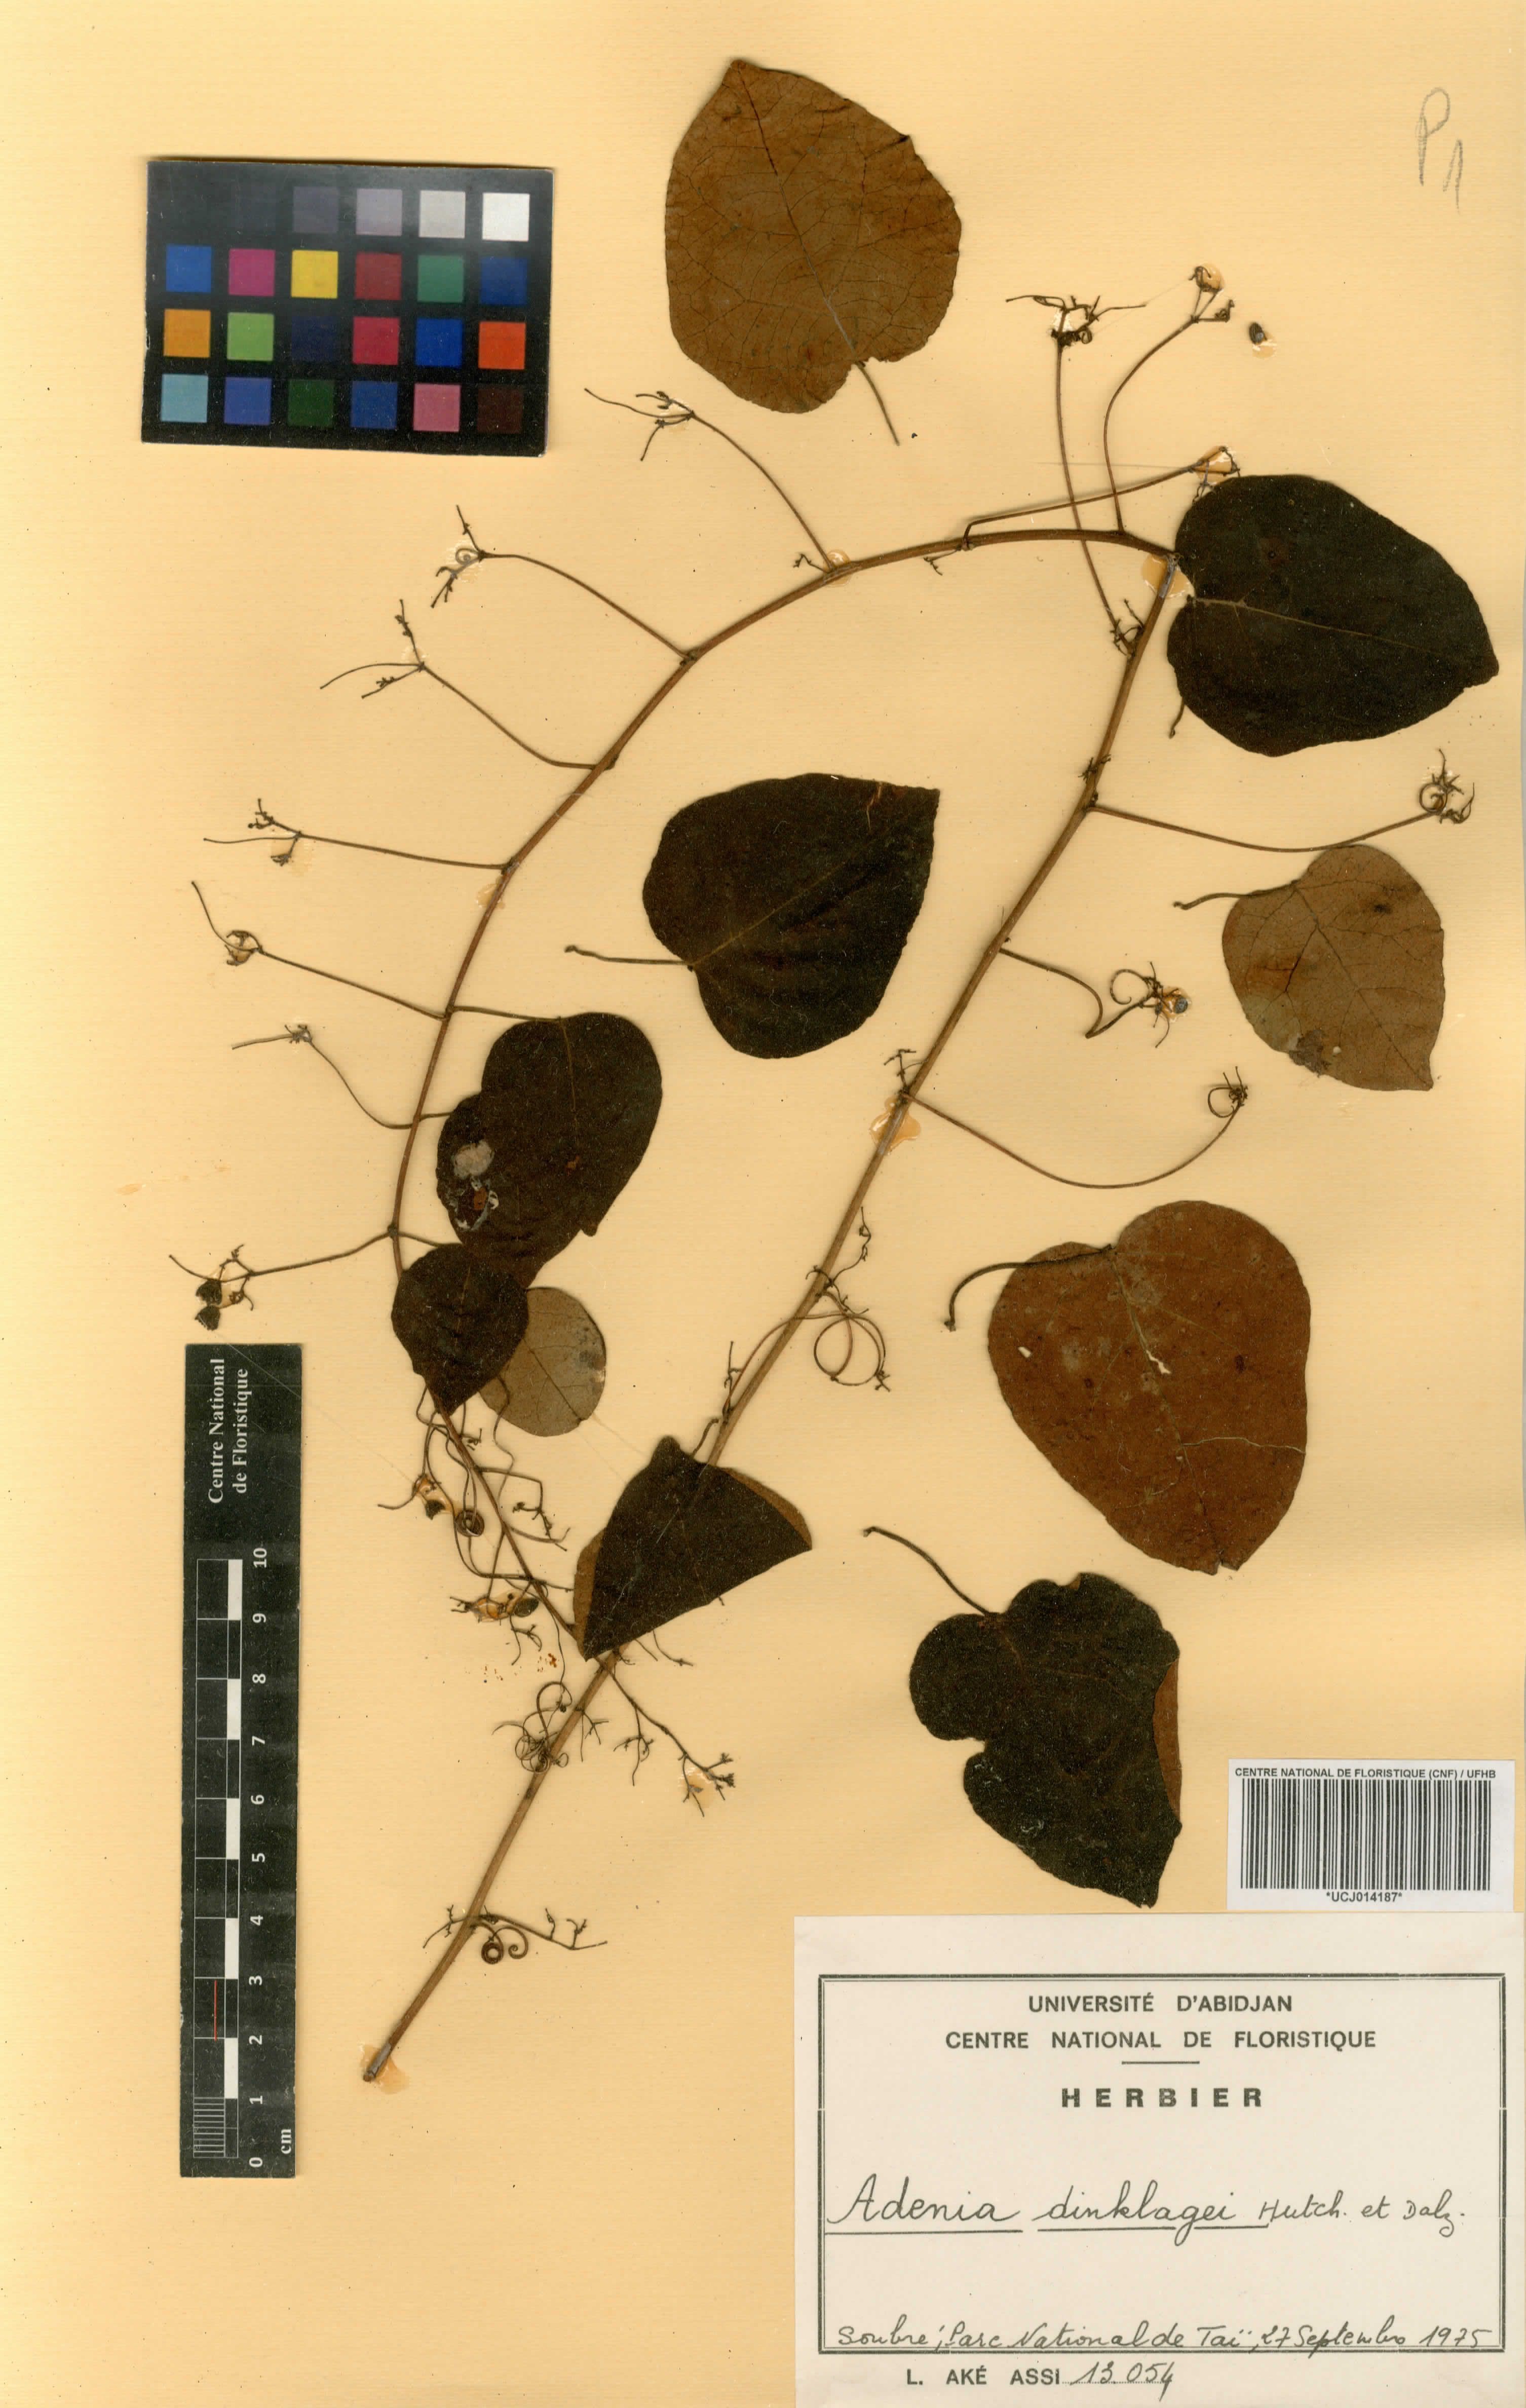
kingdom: Plantae
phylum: Tracheophyta
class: Magnoliopsida
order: Malpighiales
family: Passifloraceae
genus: Adenia
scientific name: Adenia dinklagei
